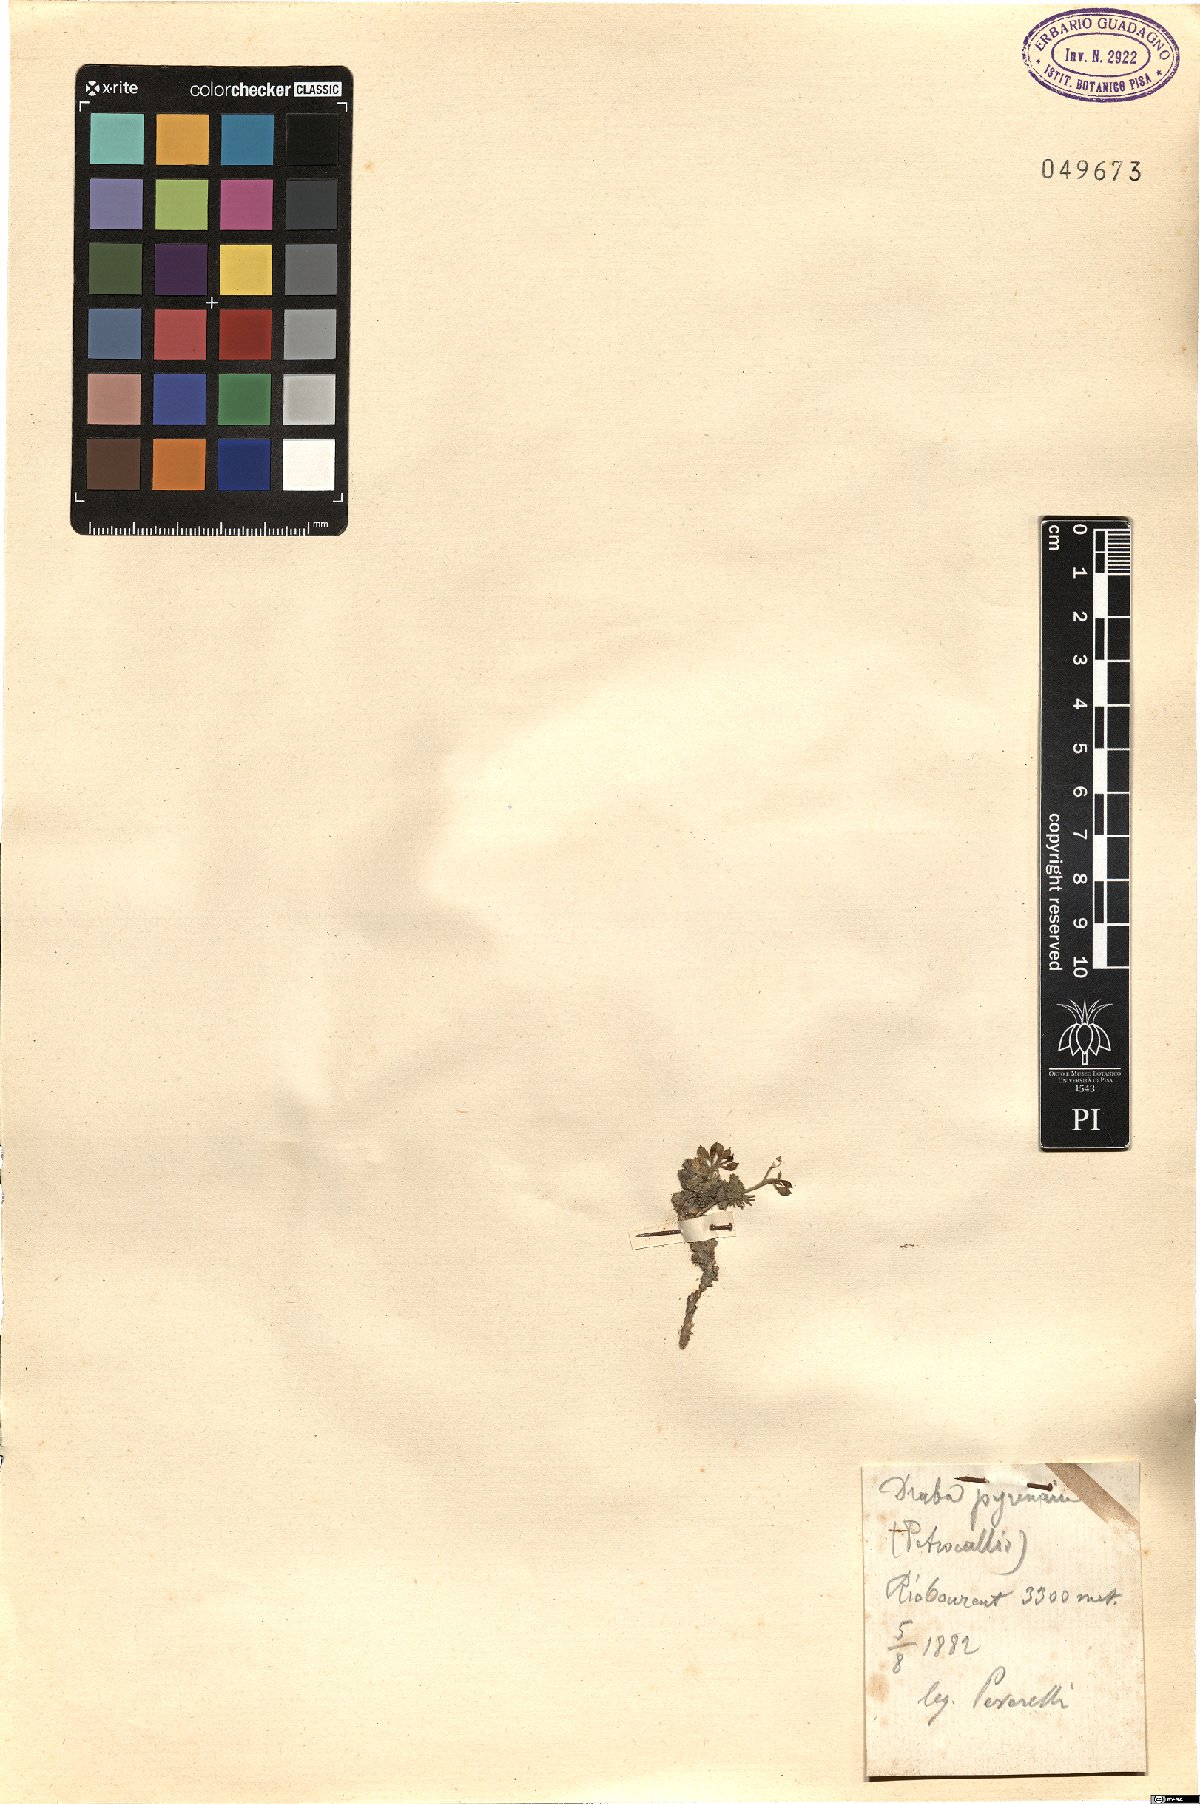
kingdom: Plantae
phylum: Tracheophyta
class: Magnoliopsida
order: Brassicales
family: Brassicaceae
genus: Petrocallis
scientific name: Petrocallis pyrenaica
